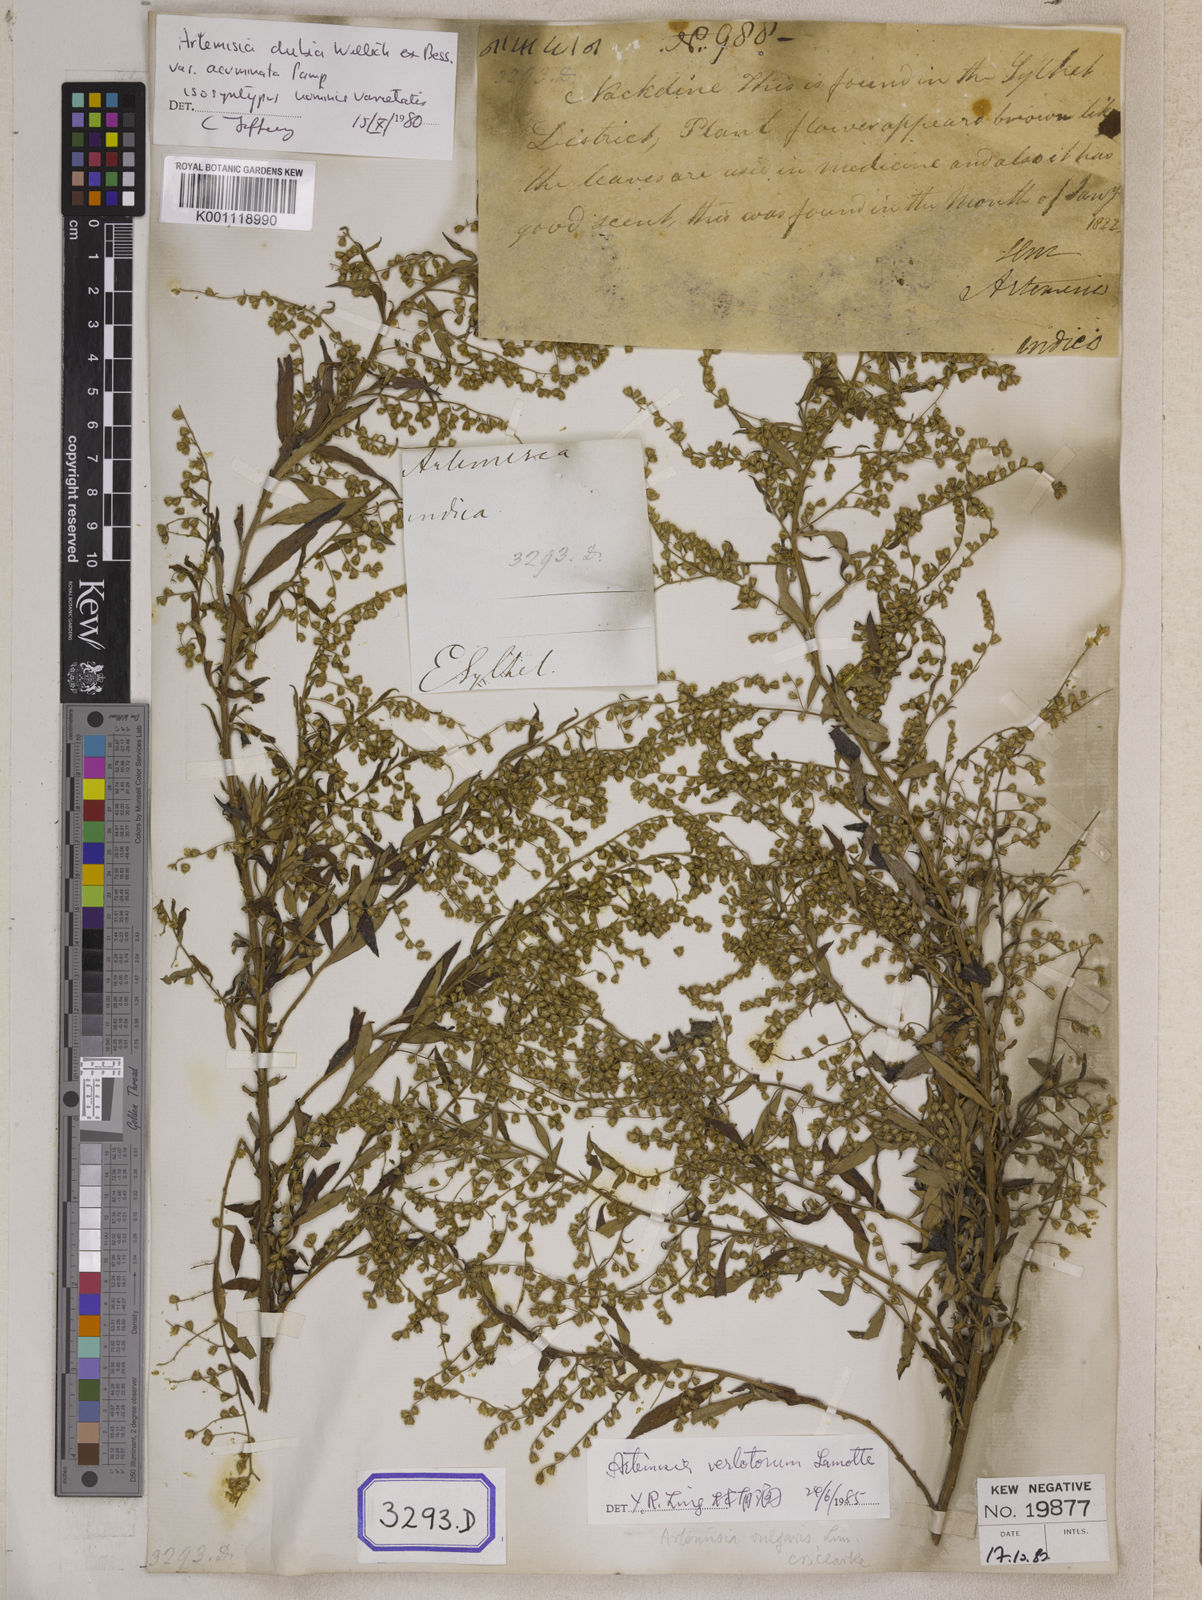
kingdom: Plantae
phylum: Tracheophyta
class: Magnoliopsida
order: Asterales
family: Asteraceae
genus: Artemisia
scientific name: Artemisia indica
